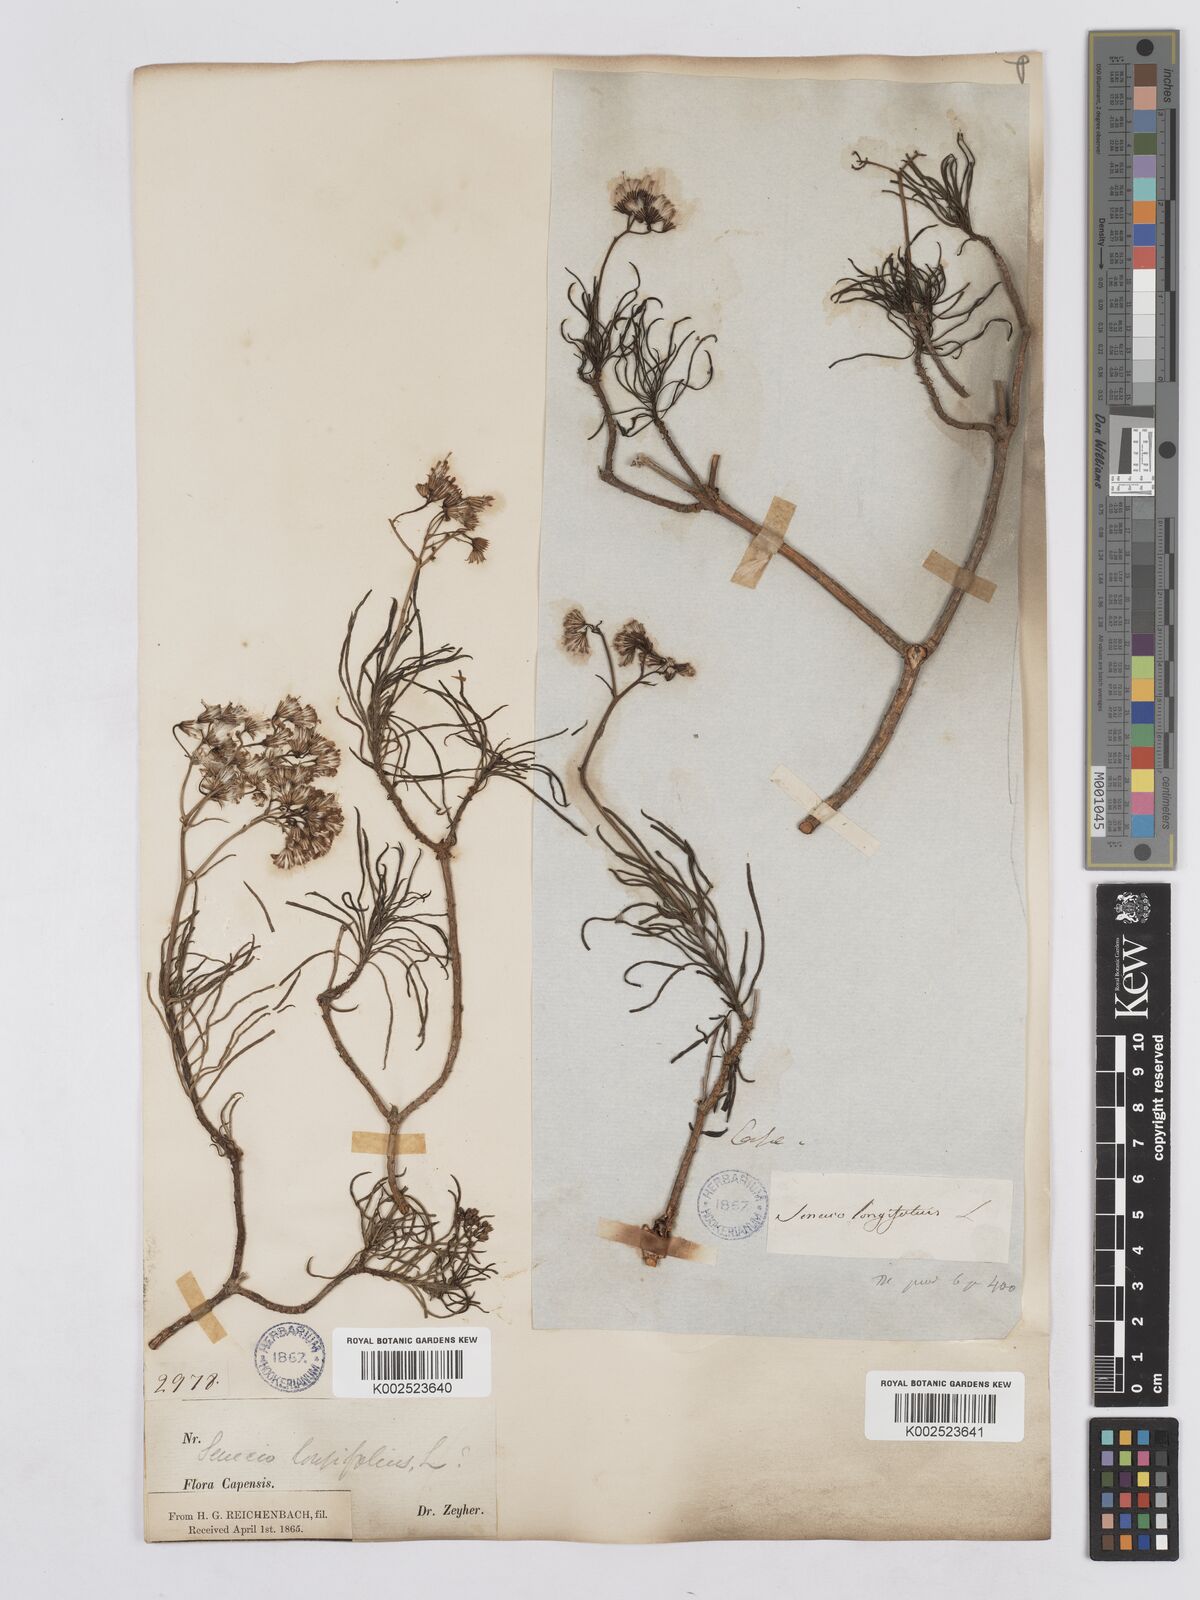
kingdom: Plantae
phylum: Tracheophyta
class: Magnoliopsida
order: Asterales
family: Asteraceae
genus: Senecio
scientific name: Senecio linifolius
